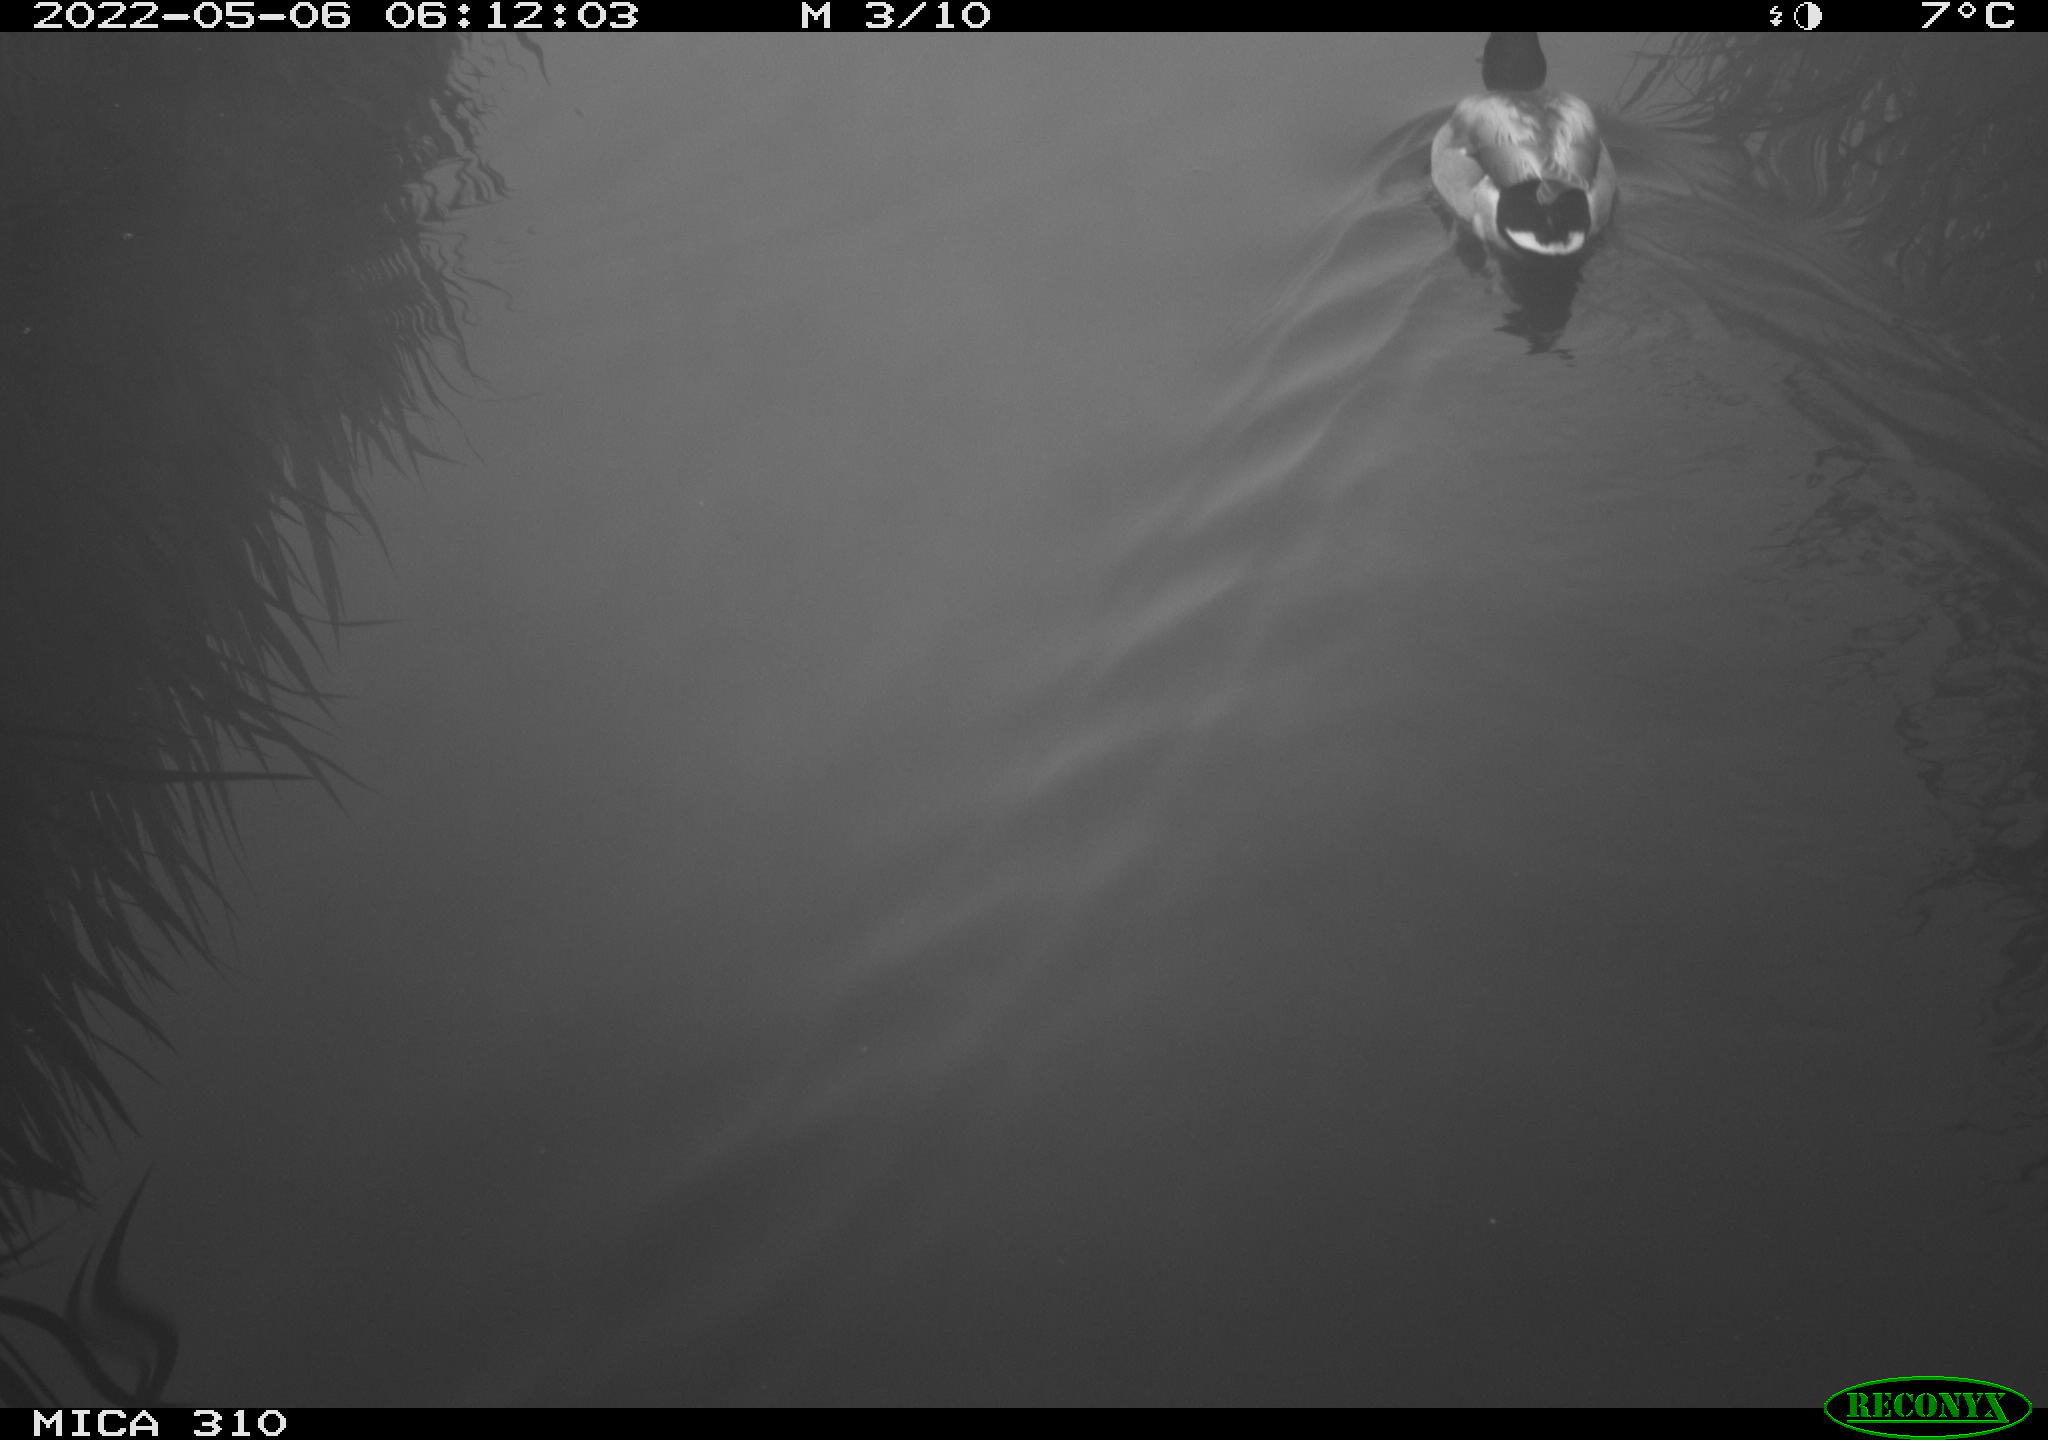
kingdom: Animalia
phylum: Chordata
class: Aves
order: Gruiformes
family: Rallidae
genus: Gallinula
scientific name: Gallinula chloropus
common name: Common moorhen
